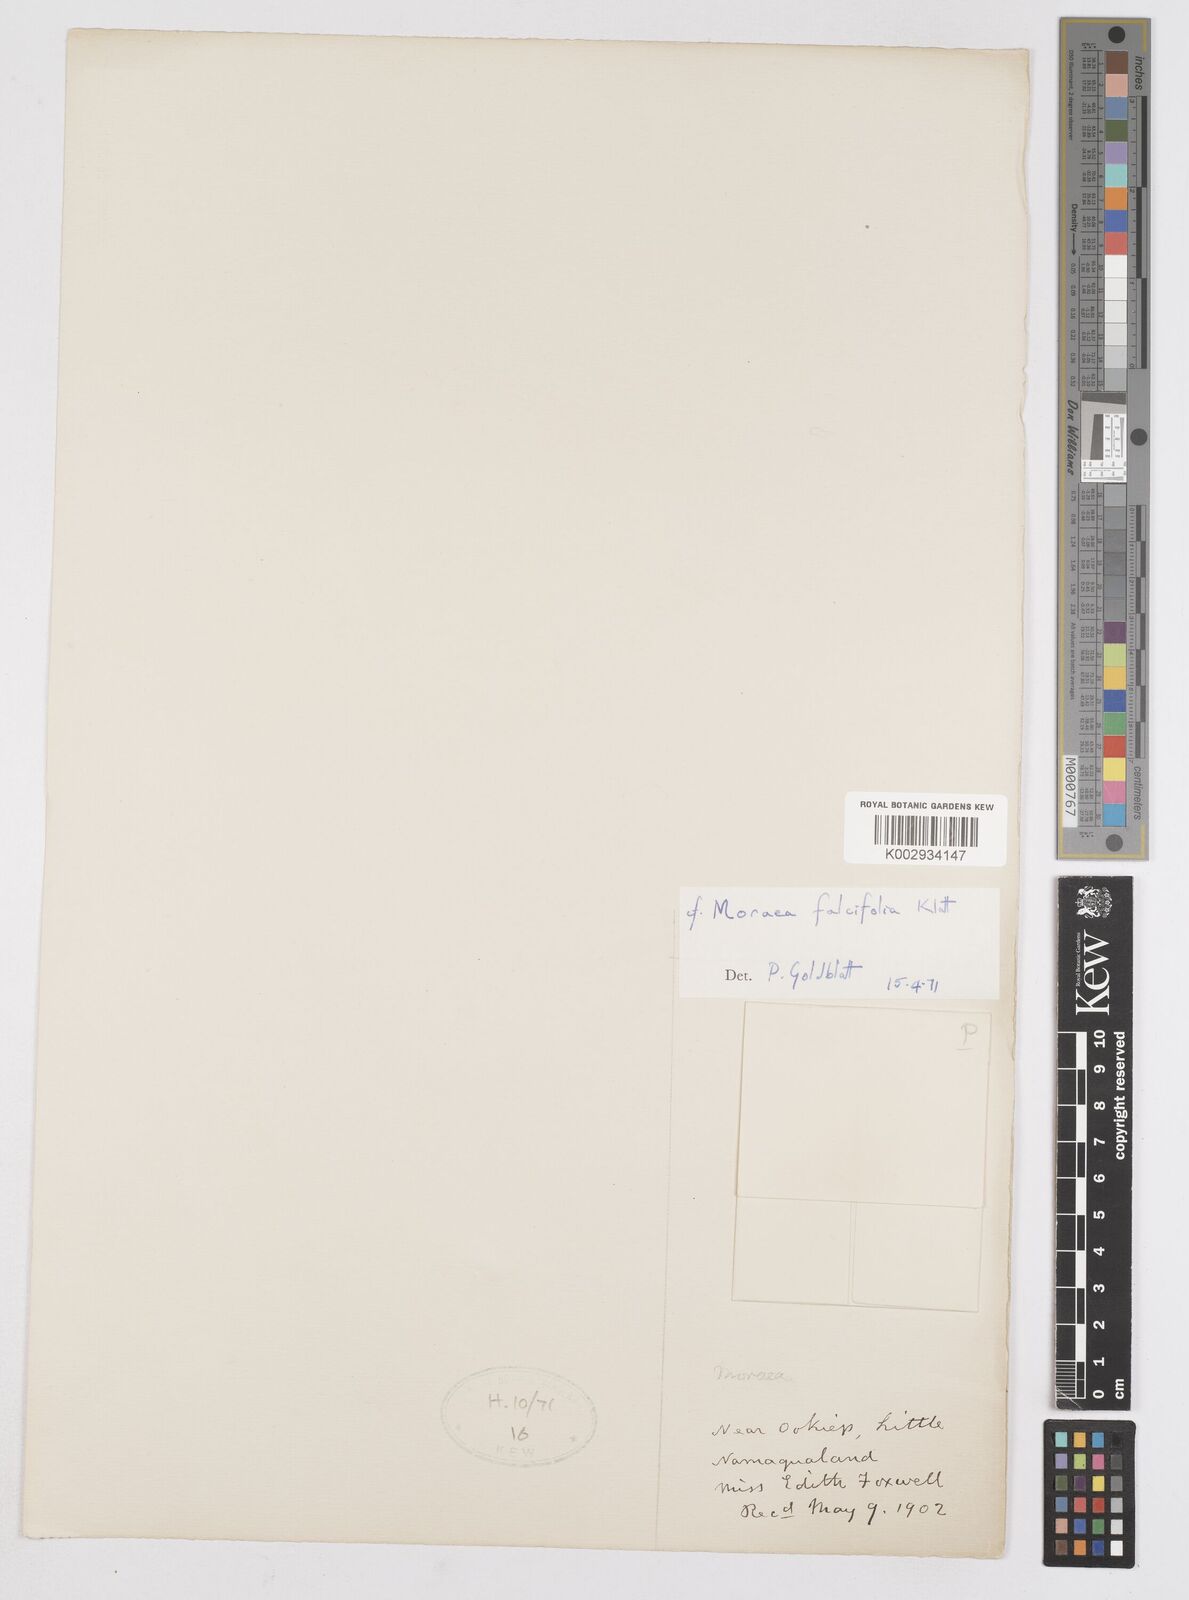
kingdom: Plantae
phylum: Tracheophyta
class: Liliopsida
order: Asparagales
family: Iridaceae
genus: Moraea
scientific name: Moraea falcifolia
